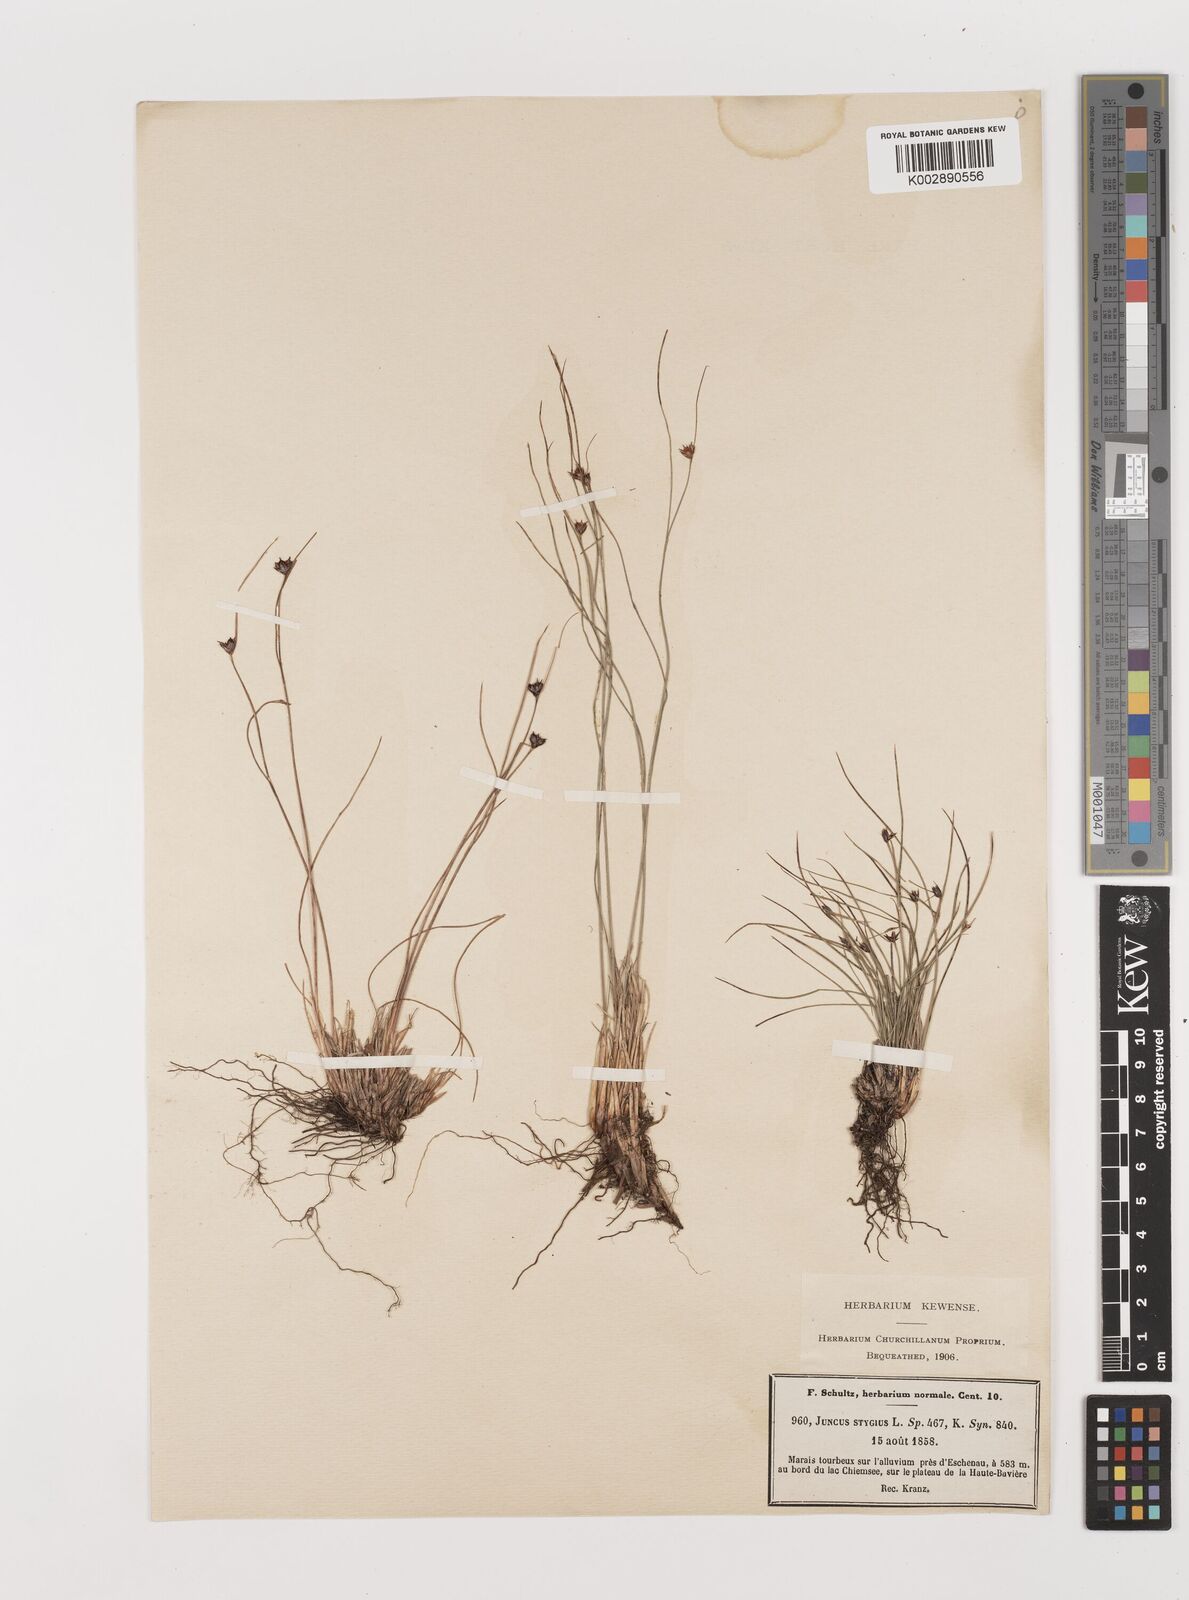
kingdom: Plantae
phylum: Tracheophyta
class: Liliopsida
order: Poales
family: Juncaceae
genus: Juncus
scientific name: Juncus stygius
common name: Bog rush
